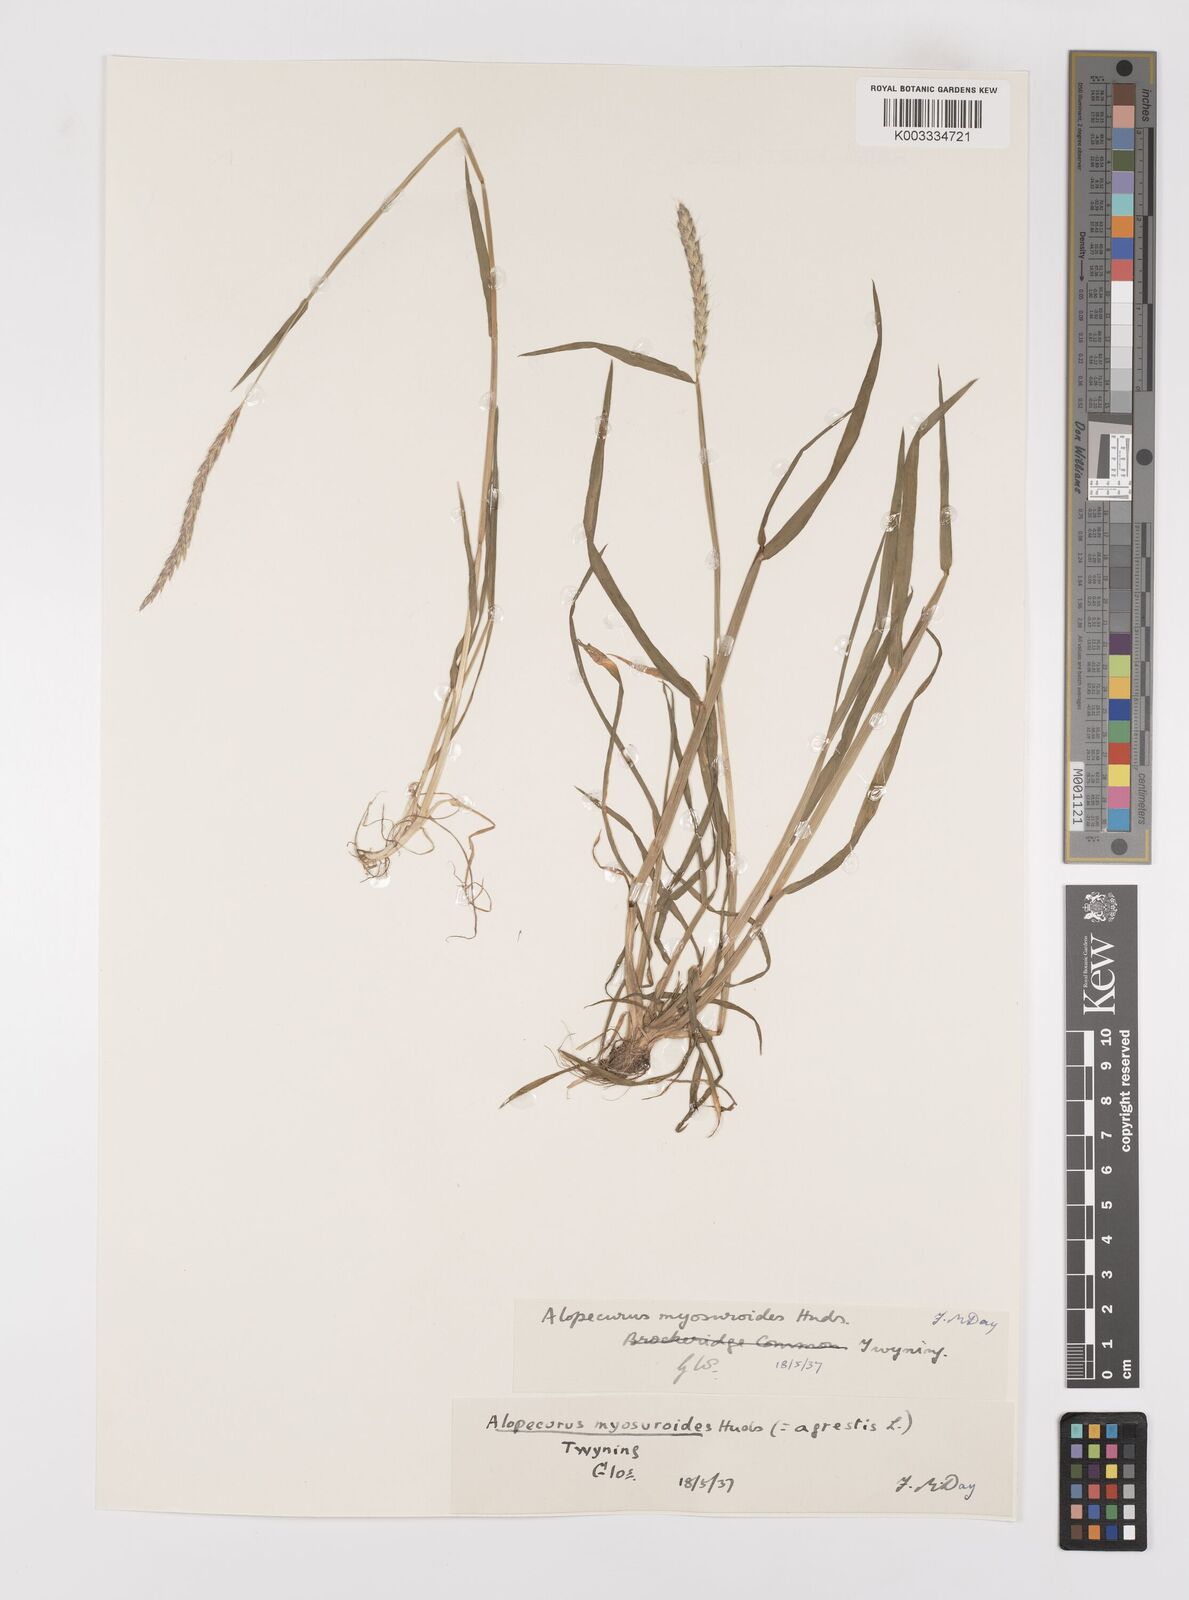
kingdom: Plantae
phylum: Tracheophyta
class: Liliopsida
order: Poales
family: Poaceae
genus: Alopecurus
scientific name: Alopecurus myosuroides
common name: Black-grass
